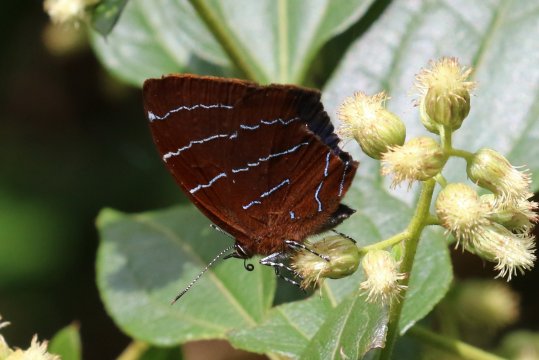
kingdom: Animalia
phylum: Arthropoda
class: Insecta
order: Lepidoptera
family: Lycaenidae
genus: Micandra
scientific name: Micandra comae
